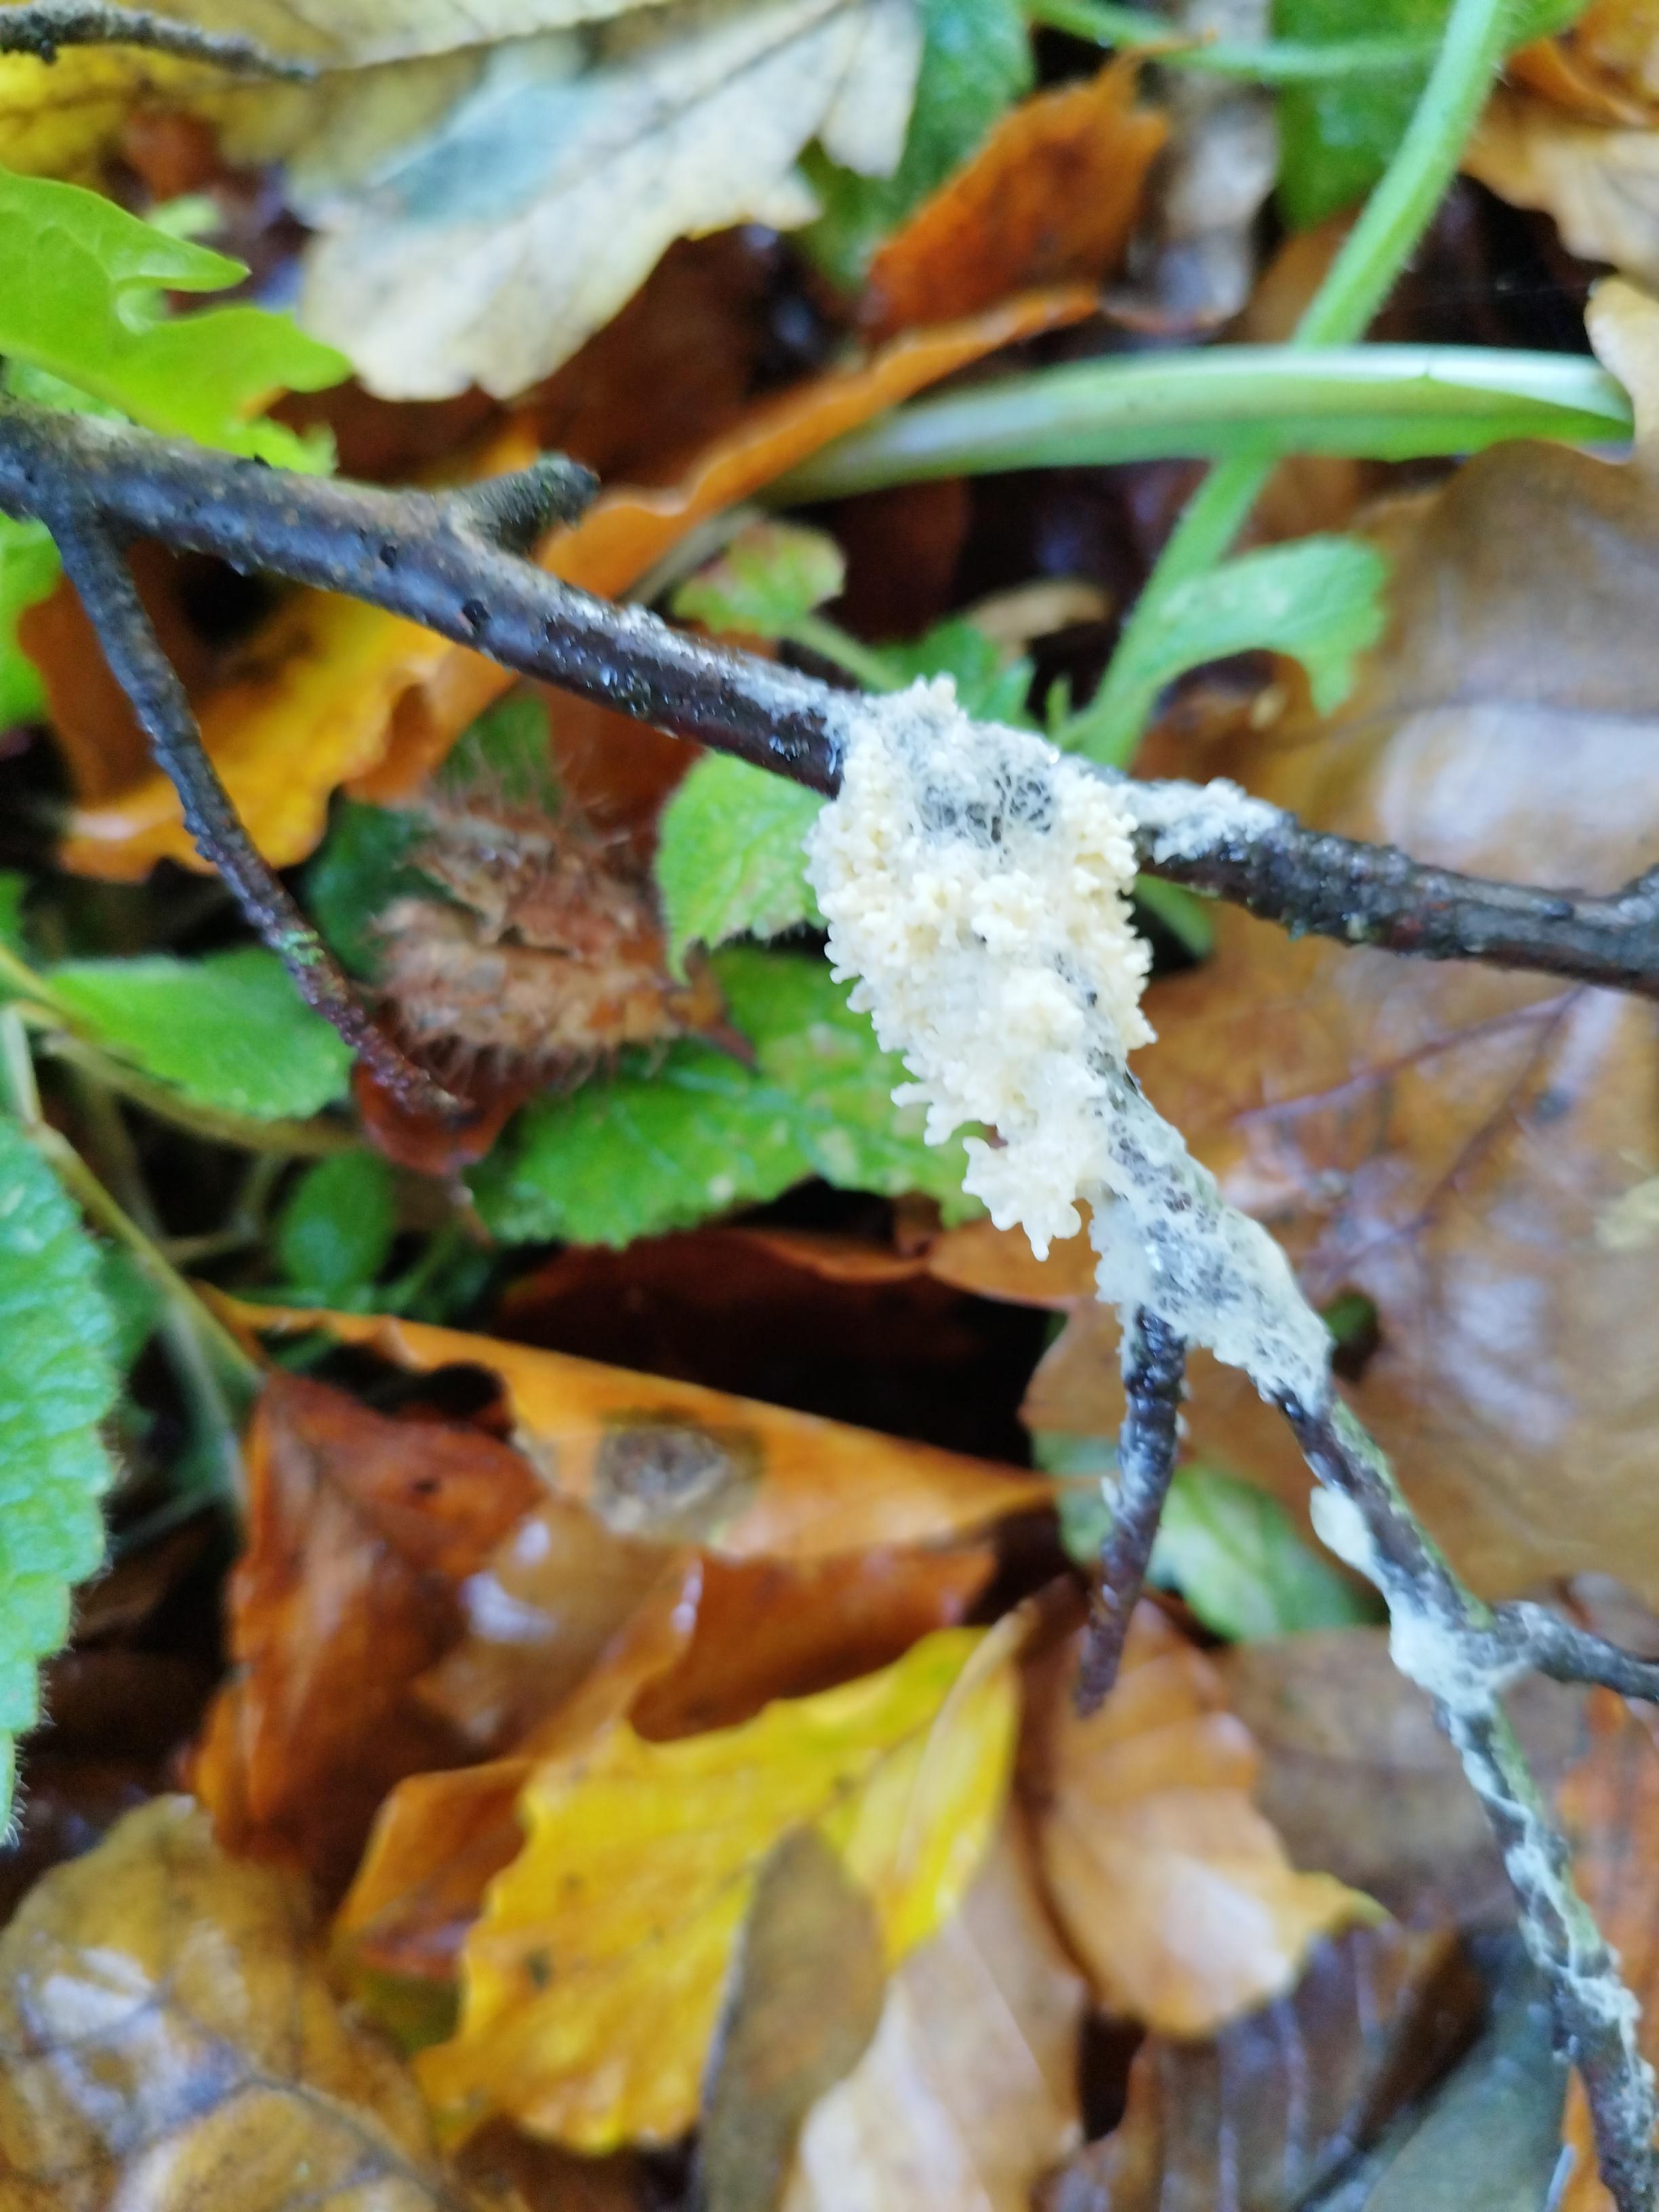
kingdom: Protozoa
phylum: Mycetozoa
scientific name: Mycetozoa
